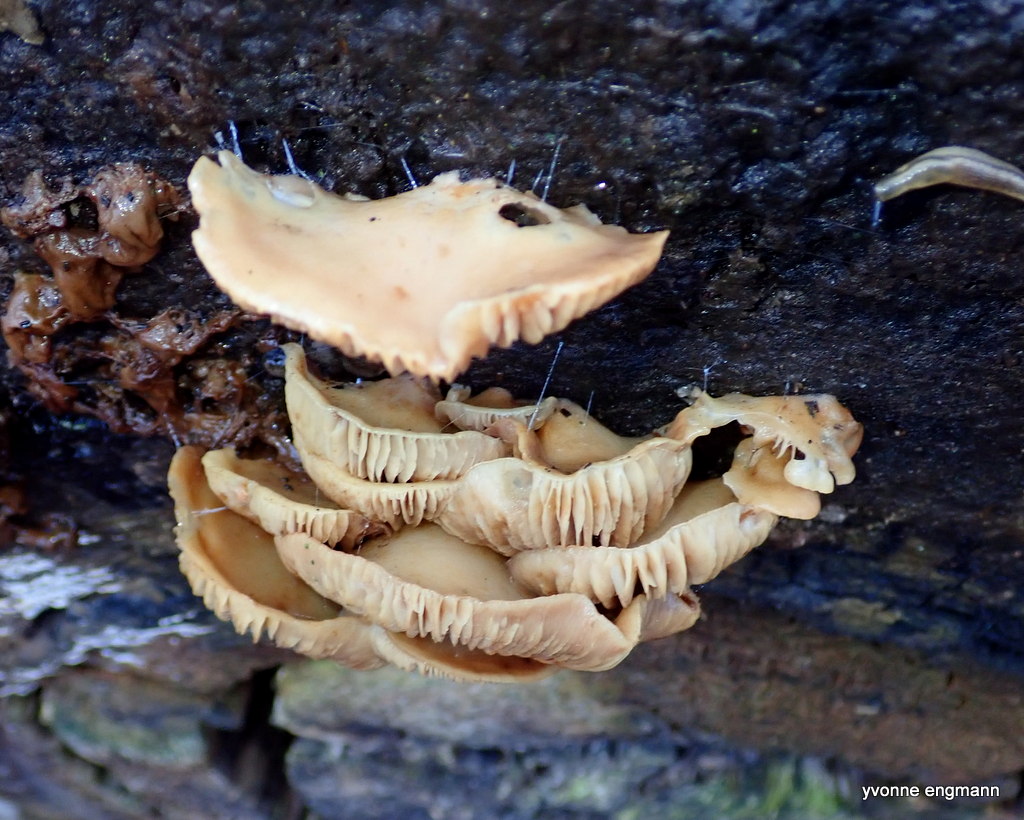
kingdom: Fungi
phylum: Basidiomycota
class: Agaricomycetes
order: Agaricales
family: Crepidotaceae
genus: Crepidotus
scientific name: Crepidotus mollis
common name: blød muslingesvamp
